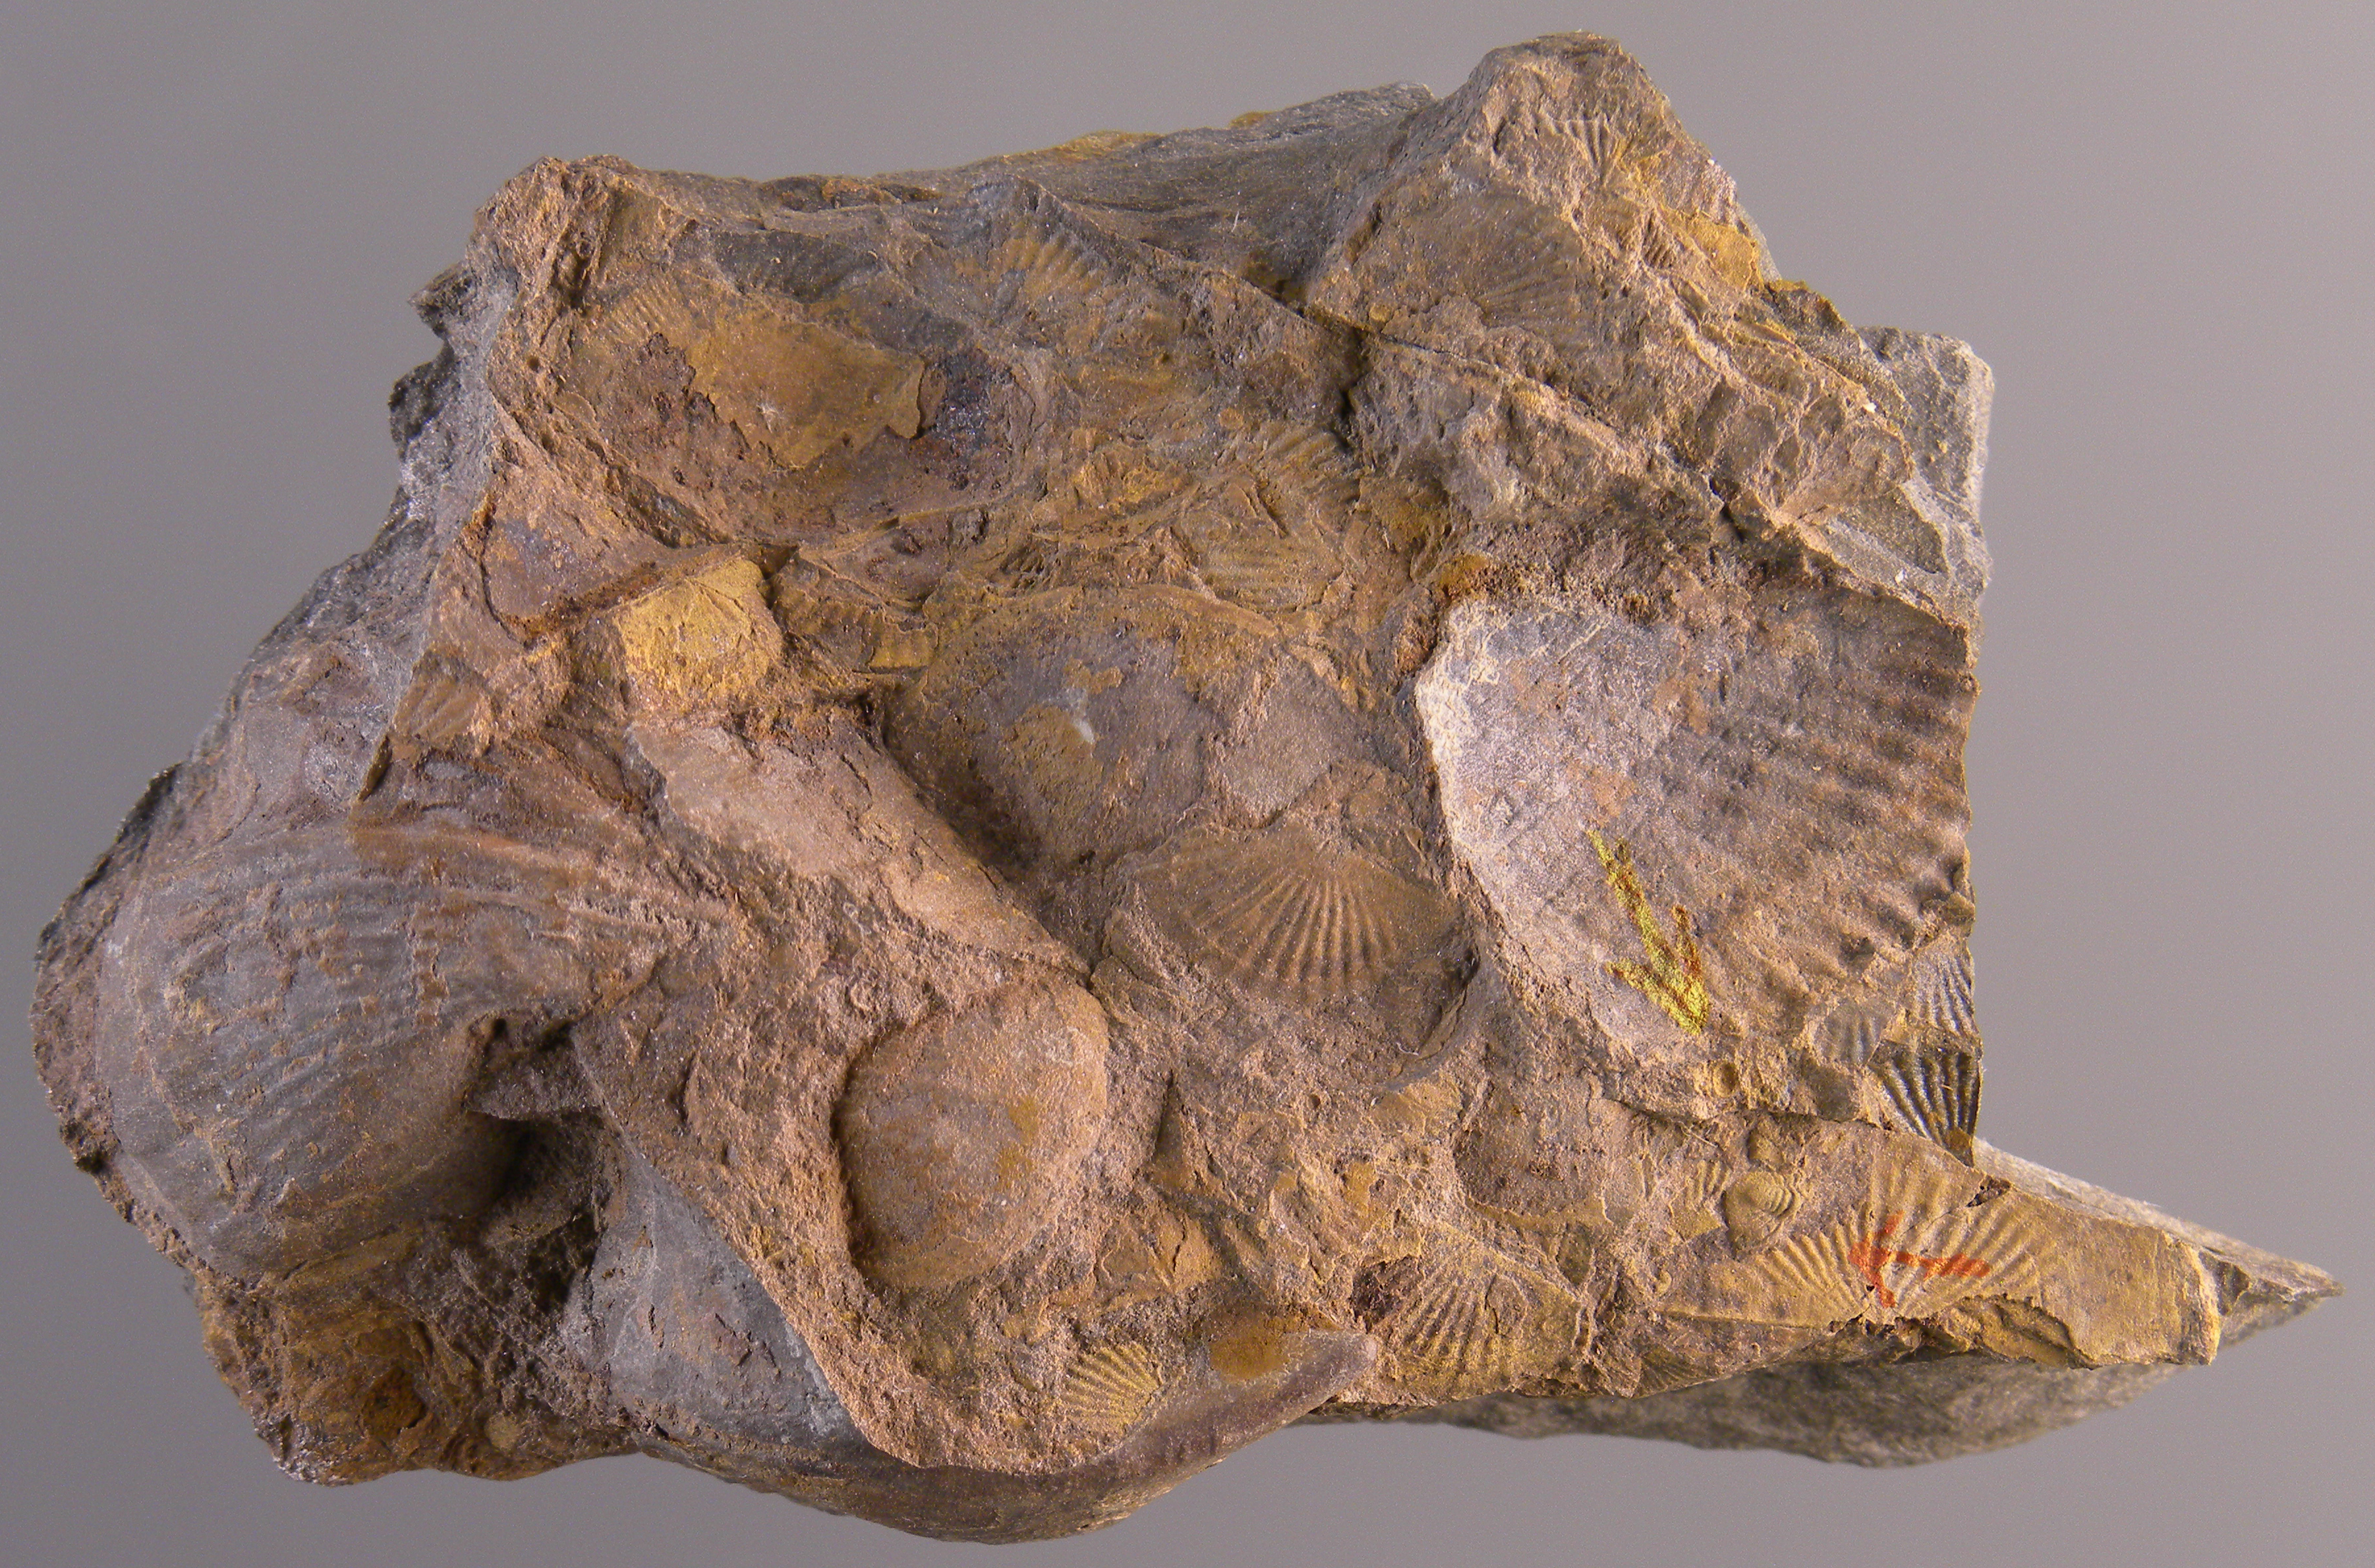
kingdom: Animalia
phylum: Arthropoda
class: Trilobita
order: Phacopida
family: Acastidae
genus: Acastava
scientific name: Acastava
